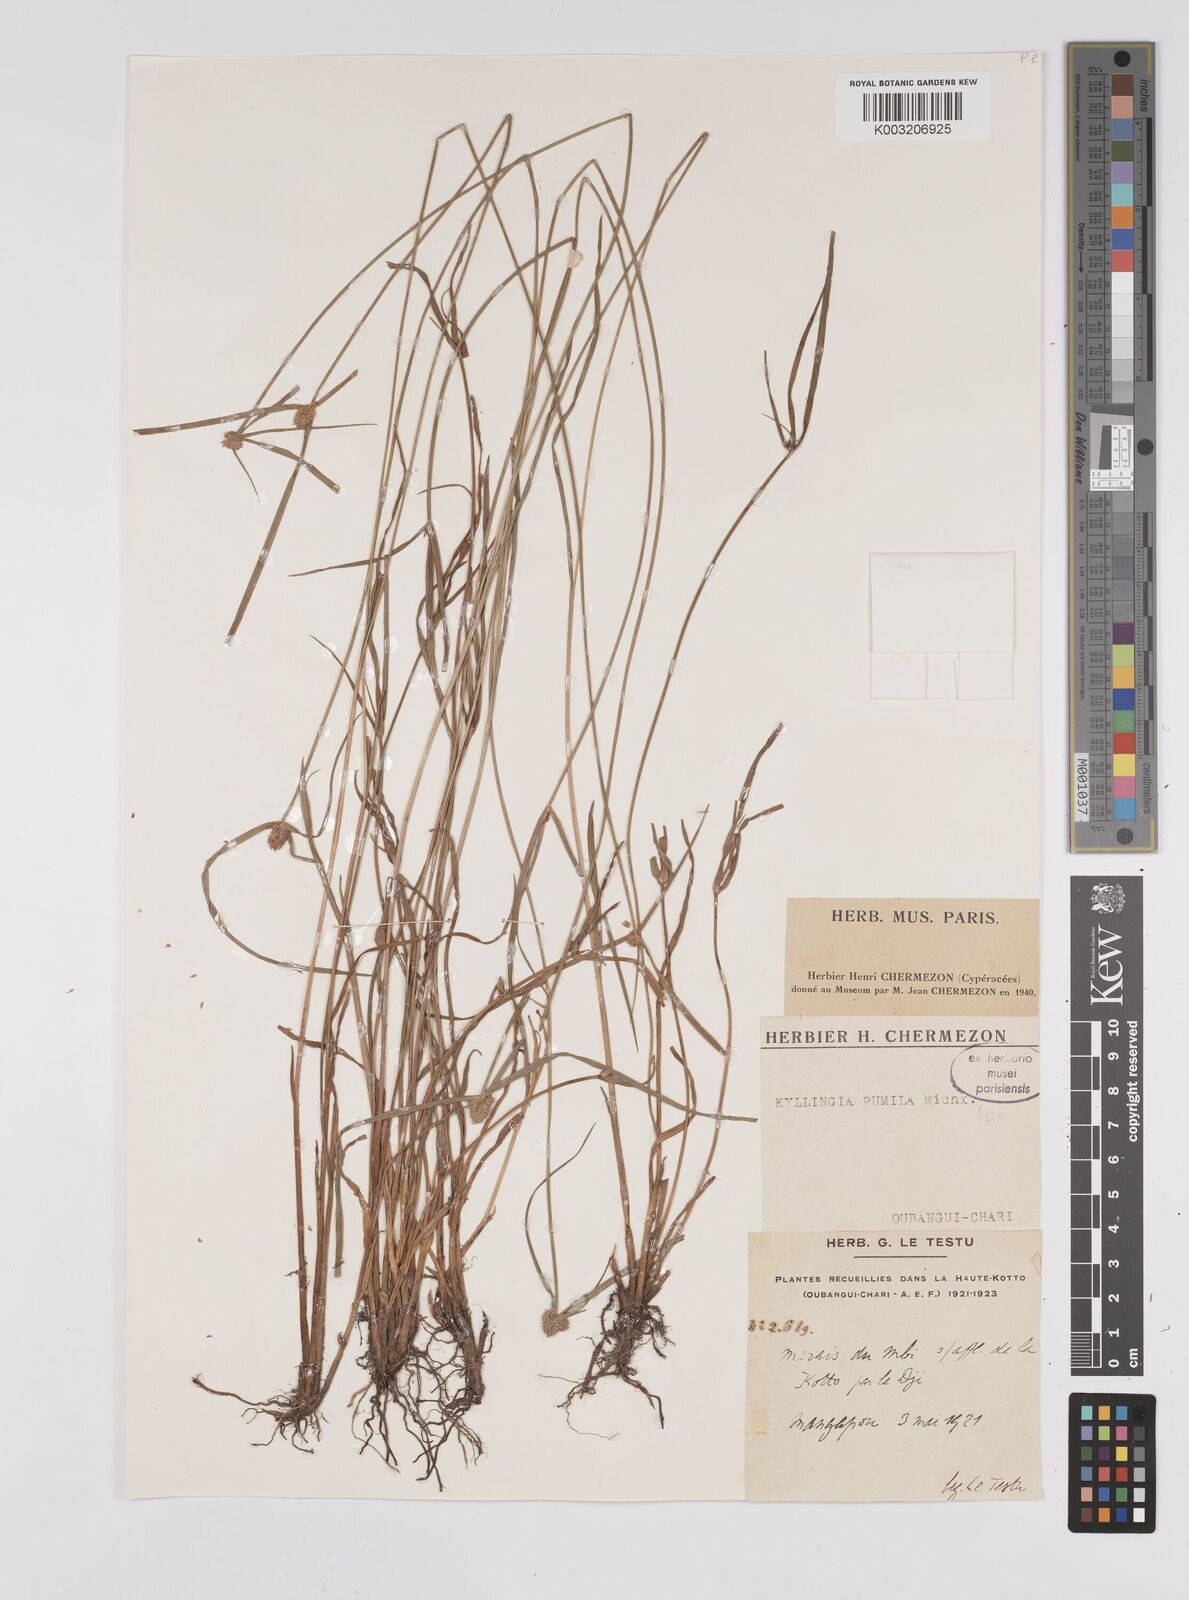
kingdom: Plantae
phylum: Tracheophyta
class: Liliopsida
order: Poales
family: Cyperaceae
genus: Cyperus
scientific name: Cyperus hortensis
